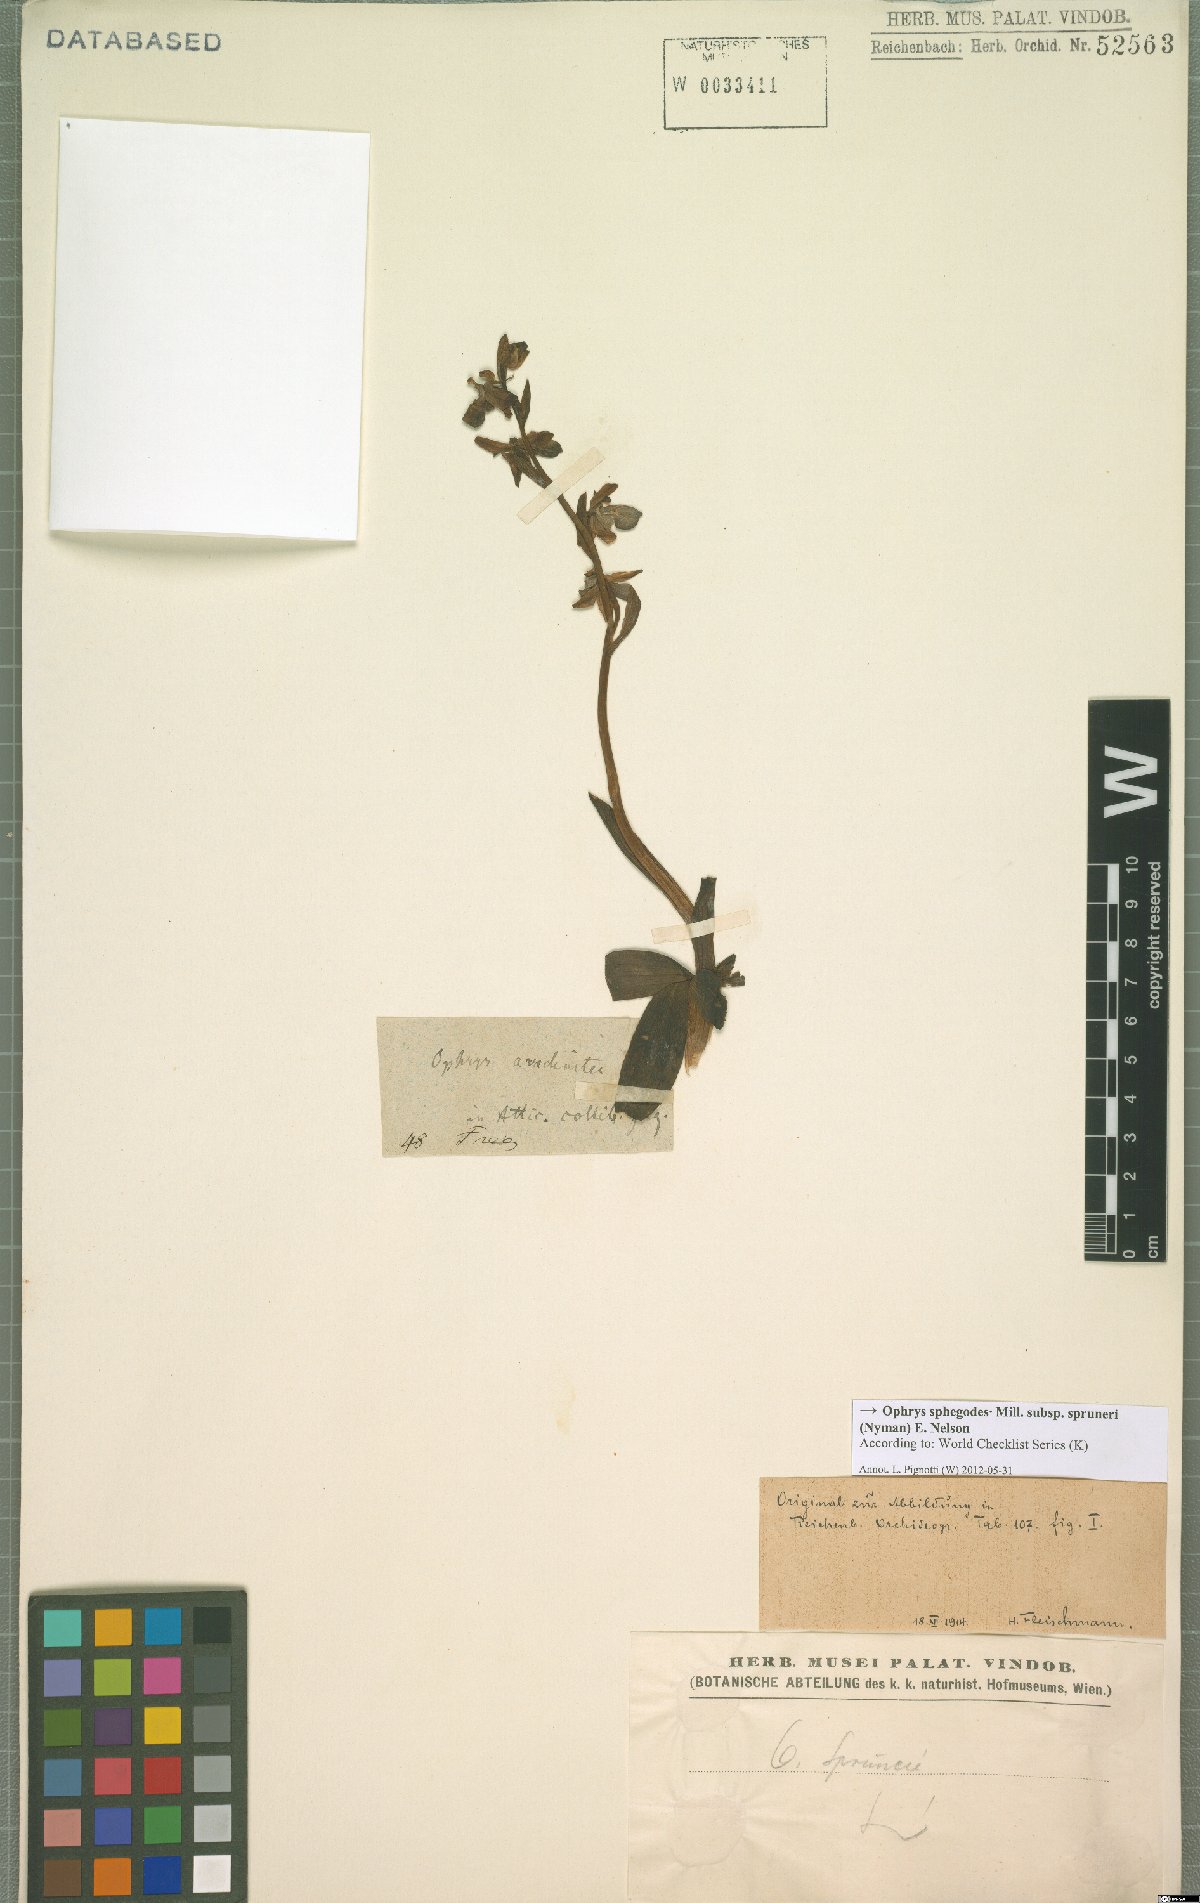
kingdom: Plantae
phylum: Tracheophyta
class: Liliopsida
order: Asparagales
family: Orchidaceae
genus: Ophrys
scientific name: Ophrys sphegodes
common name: Early spider-orchid
